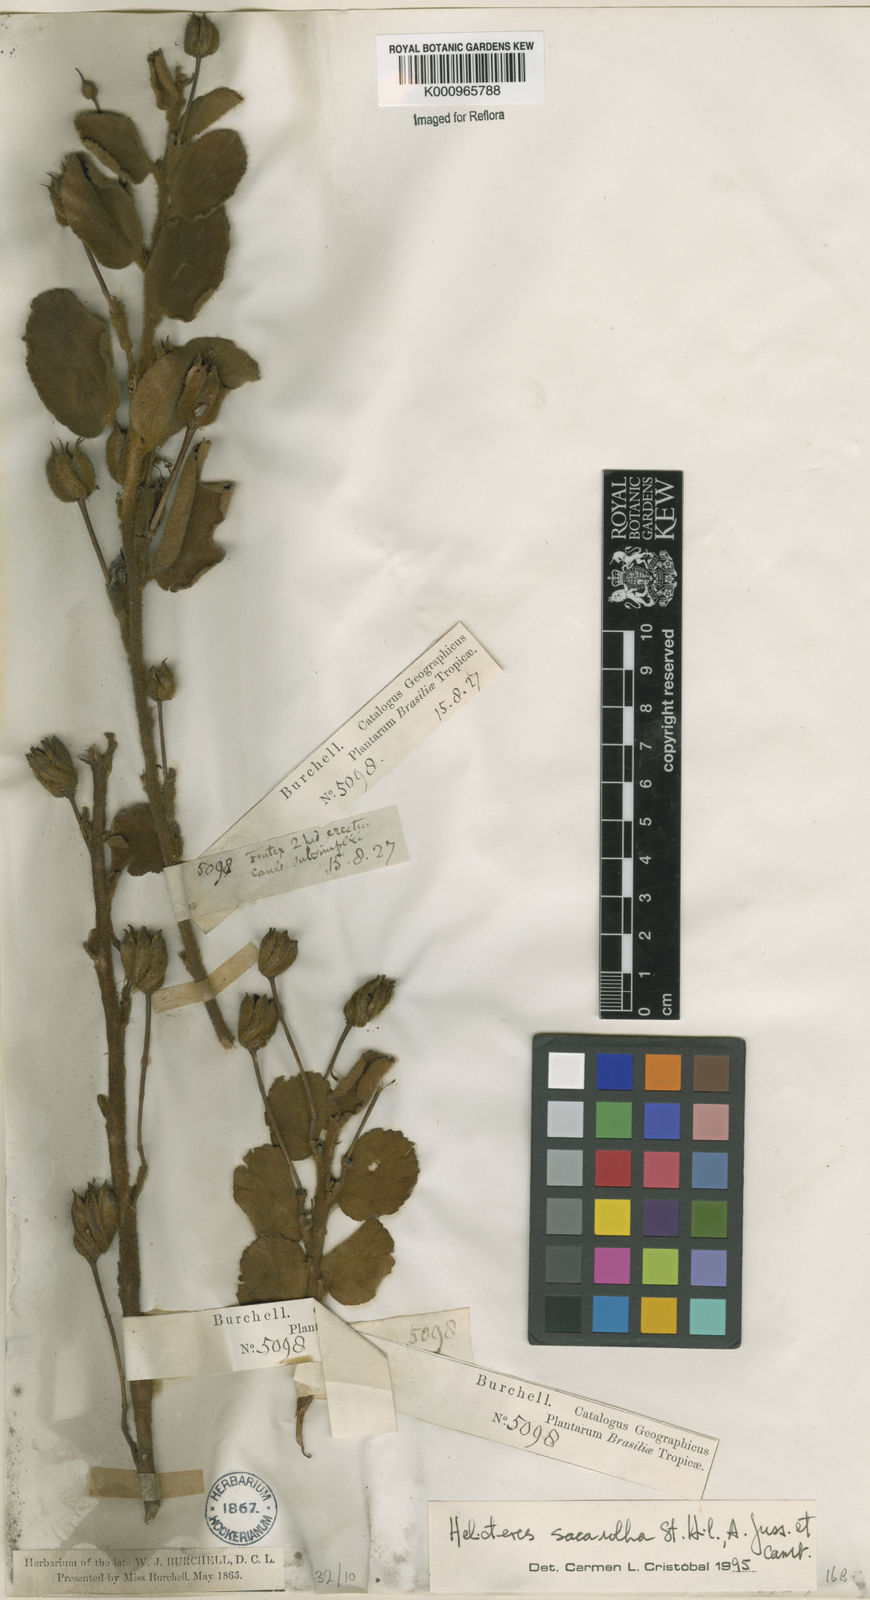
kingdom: Plantae
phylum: Tracheophyta
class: Magnoliopsida
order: Malvales
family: Malvaceae
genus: Helicteres
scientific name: Helicteres
